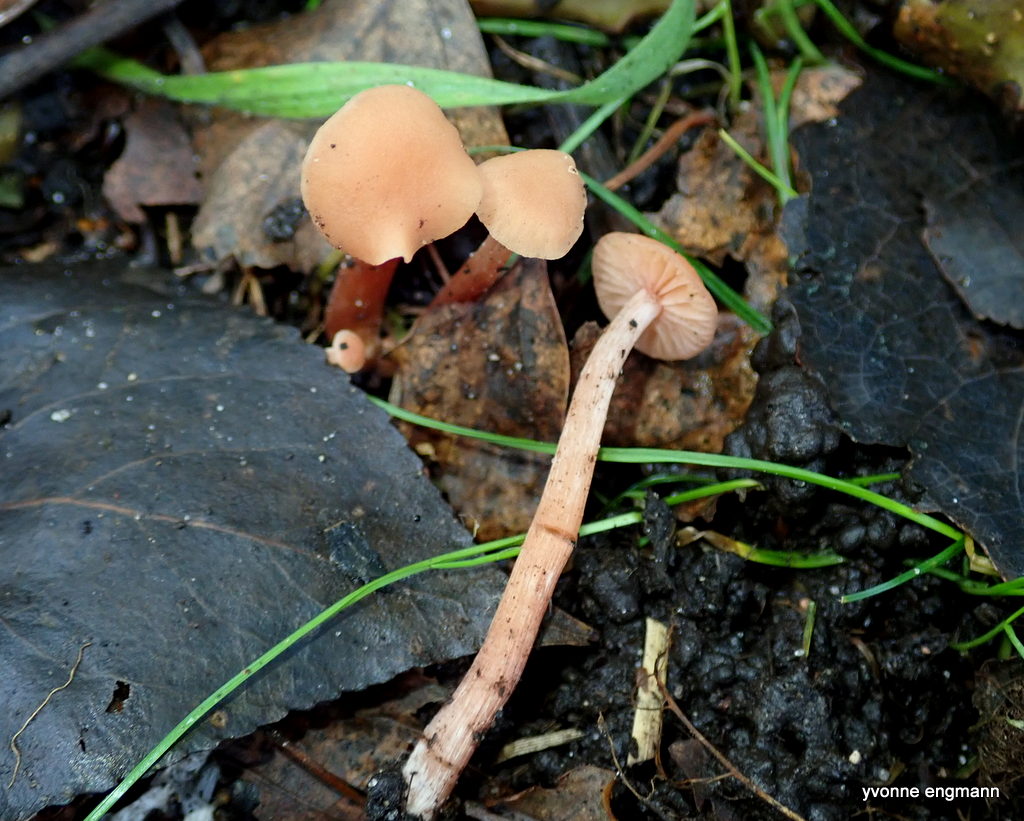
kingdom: Fungi
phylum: Basidiomycota
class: Agaricomycetes
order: Agaricales
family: Hydnangiaceae
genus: Laccaria
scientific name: Laccaria laccata
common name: rød ametysthat
